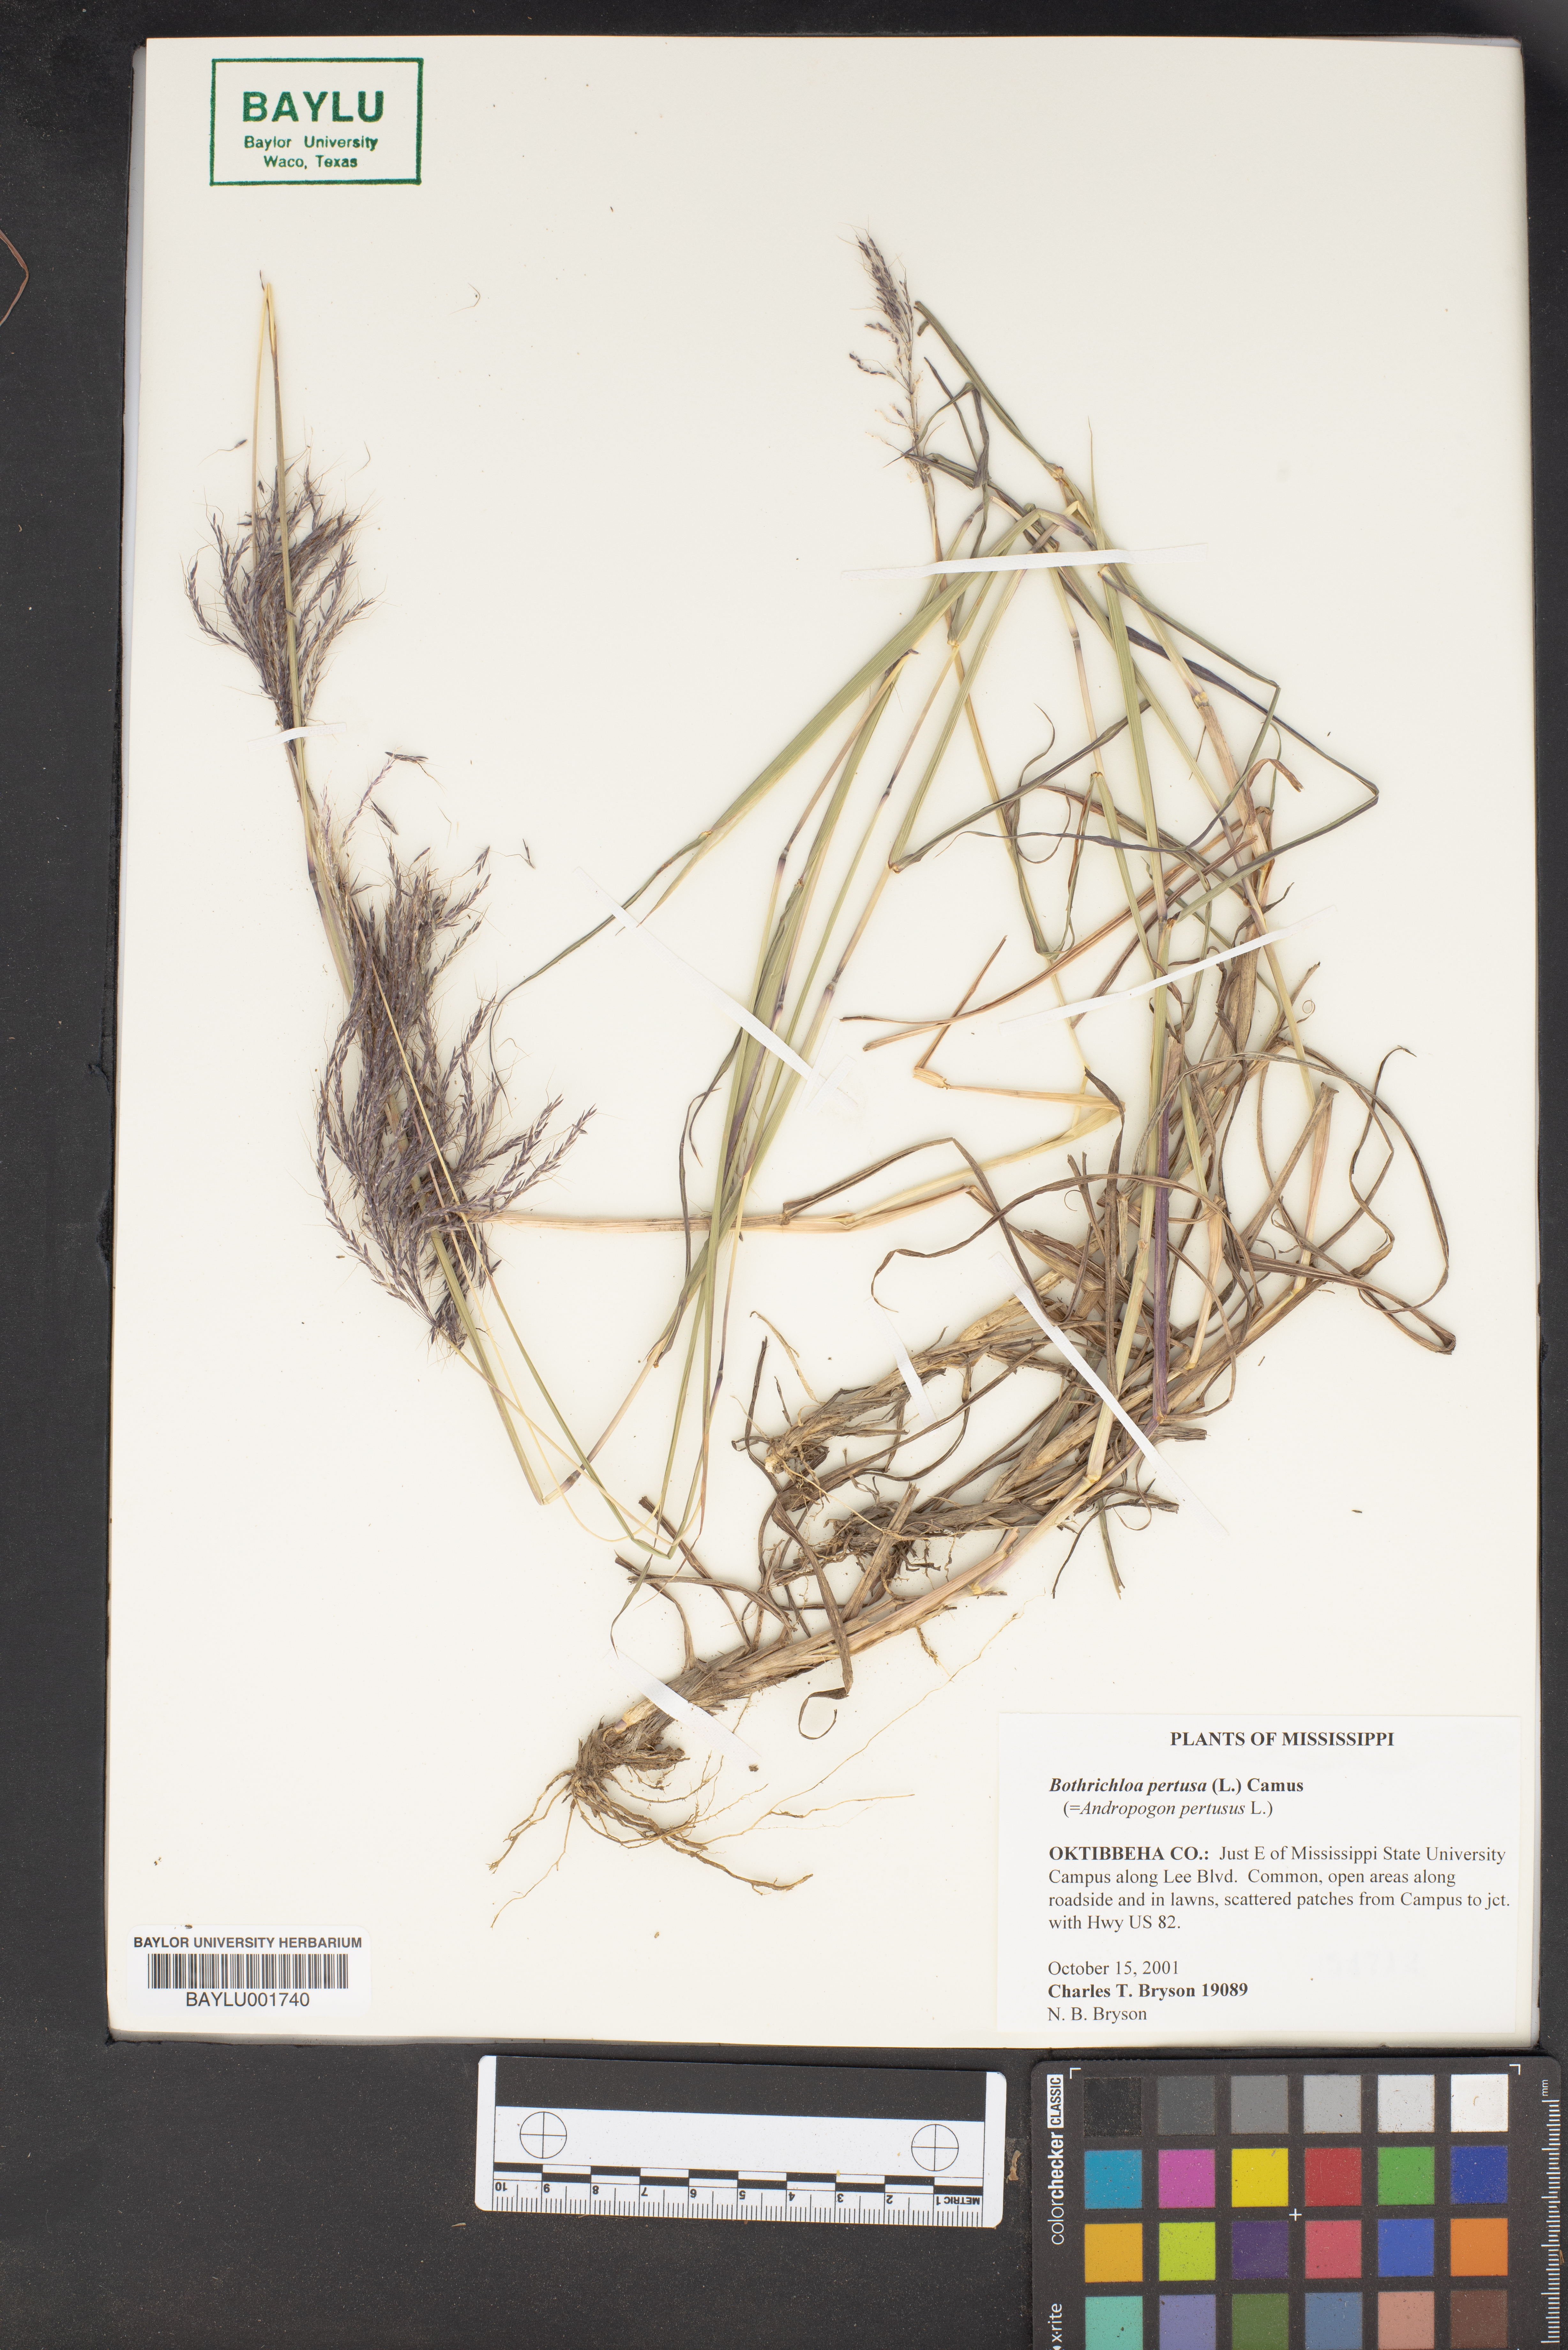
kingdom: Plantae
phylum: Tracheophyta
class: Liliopsida
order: Poales
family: Poaceae
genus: Bothriochloa
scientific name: Bothriochloa pertusa
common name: Pitted beardgrass
